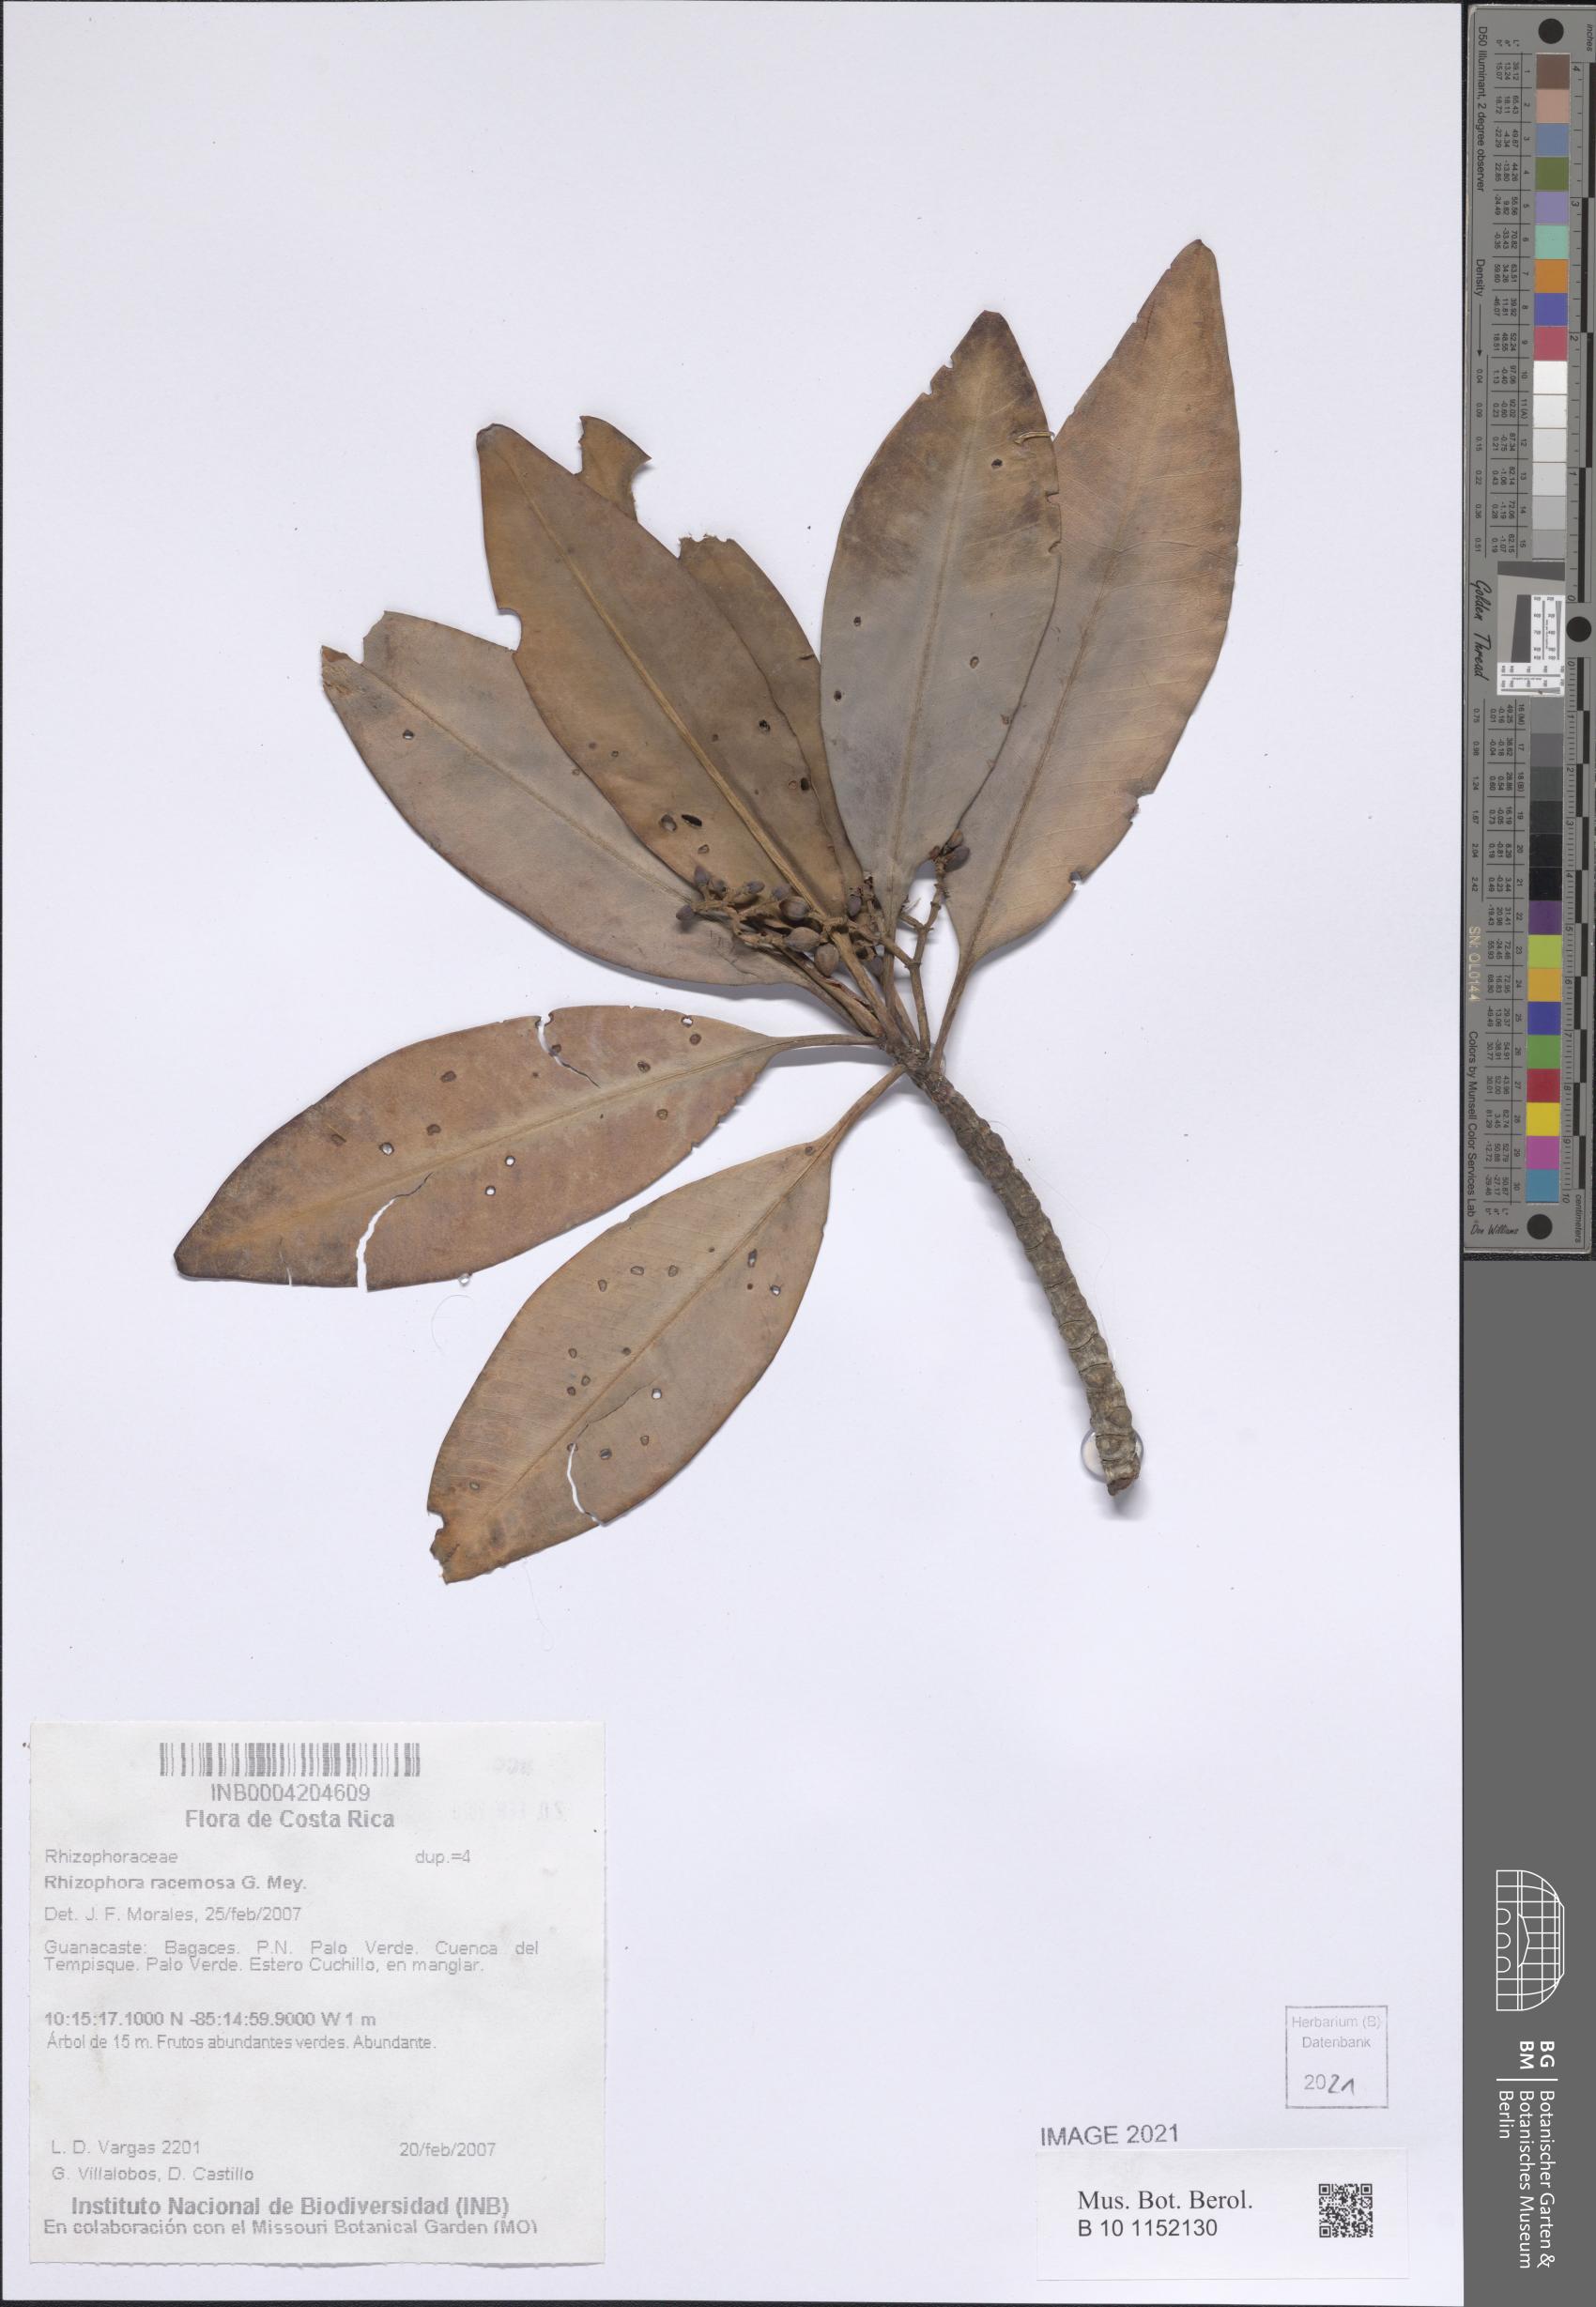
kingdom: Plantae
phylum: Tracheophyta
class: Magnoliopsida
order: Malpighiales
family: Rhizophoraceae
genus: Rhizophora
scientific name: Rhizophora racemosa
